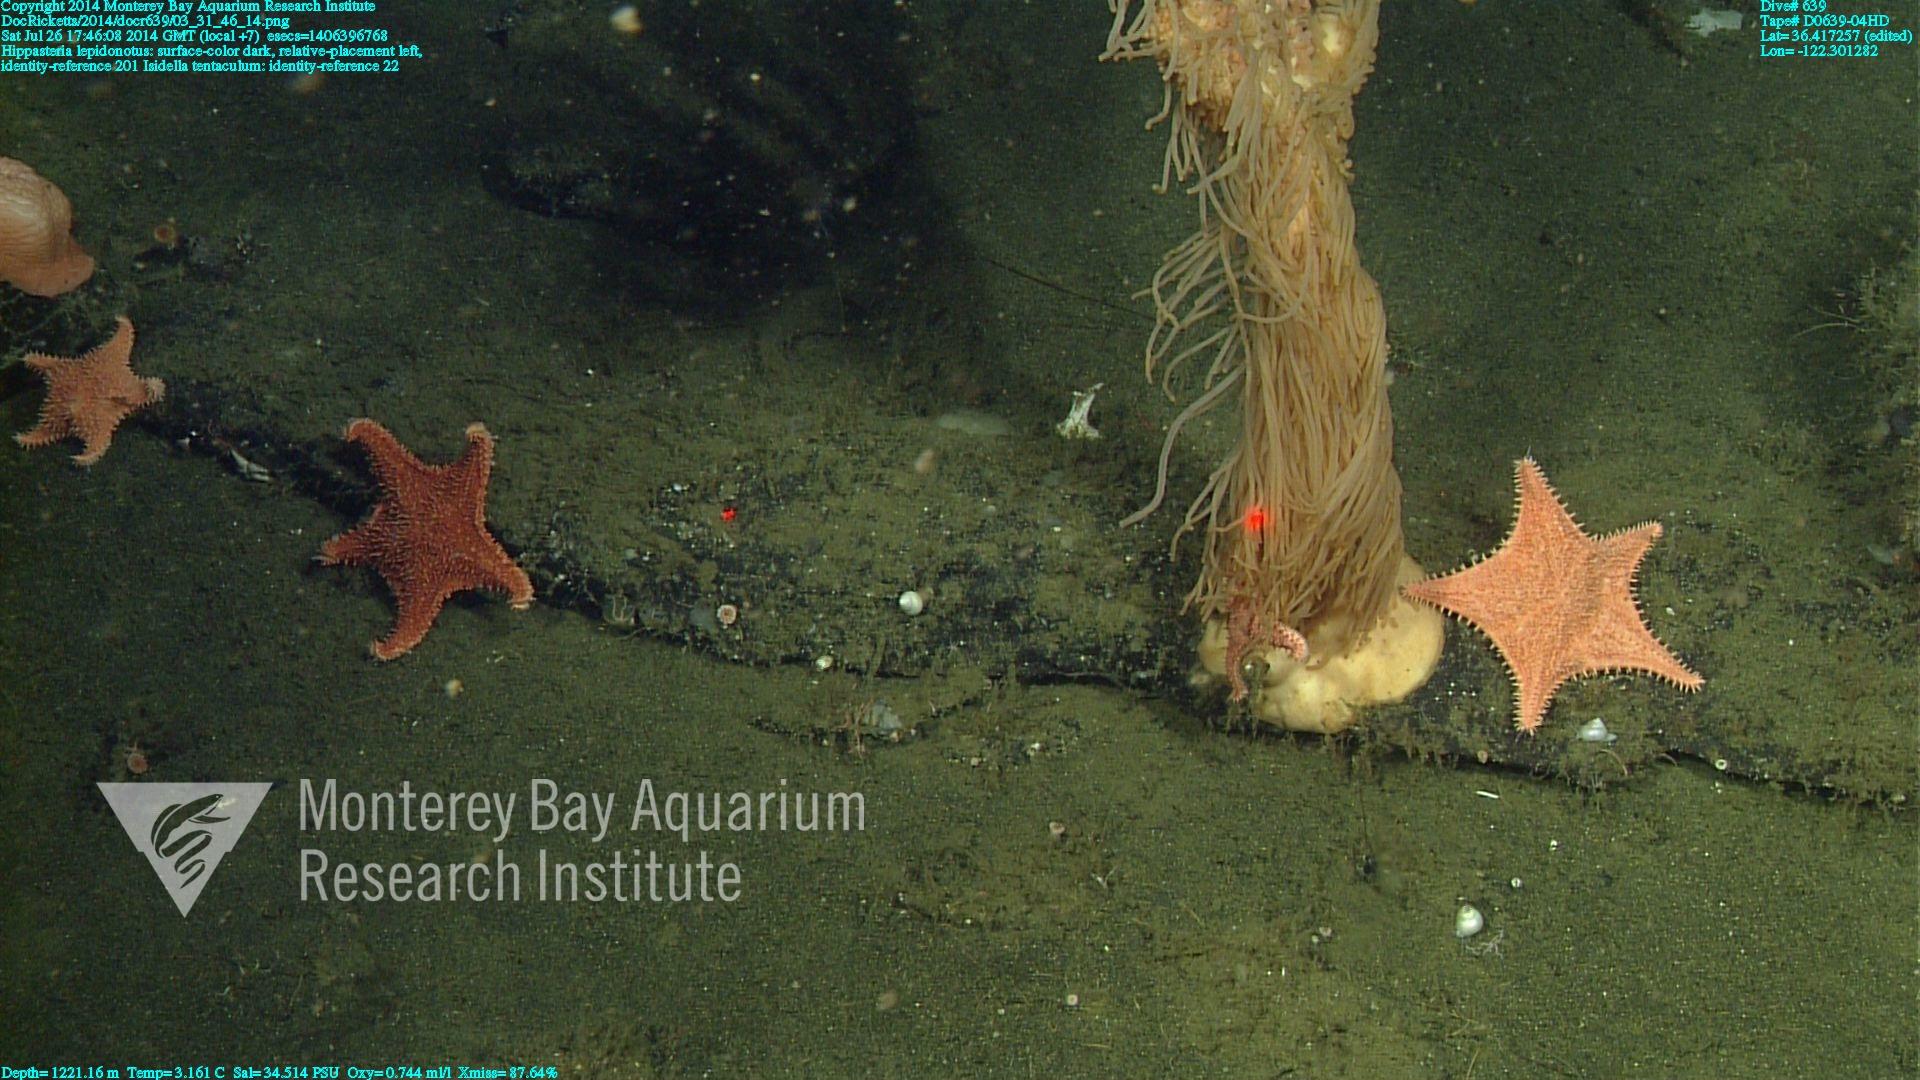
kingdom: Animalia
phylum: Cnidaria
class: Anthozoa
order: Scleralcyonacea
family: Keratoisididae
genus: Isidella
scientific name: Isidella tentaculum
